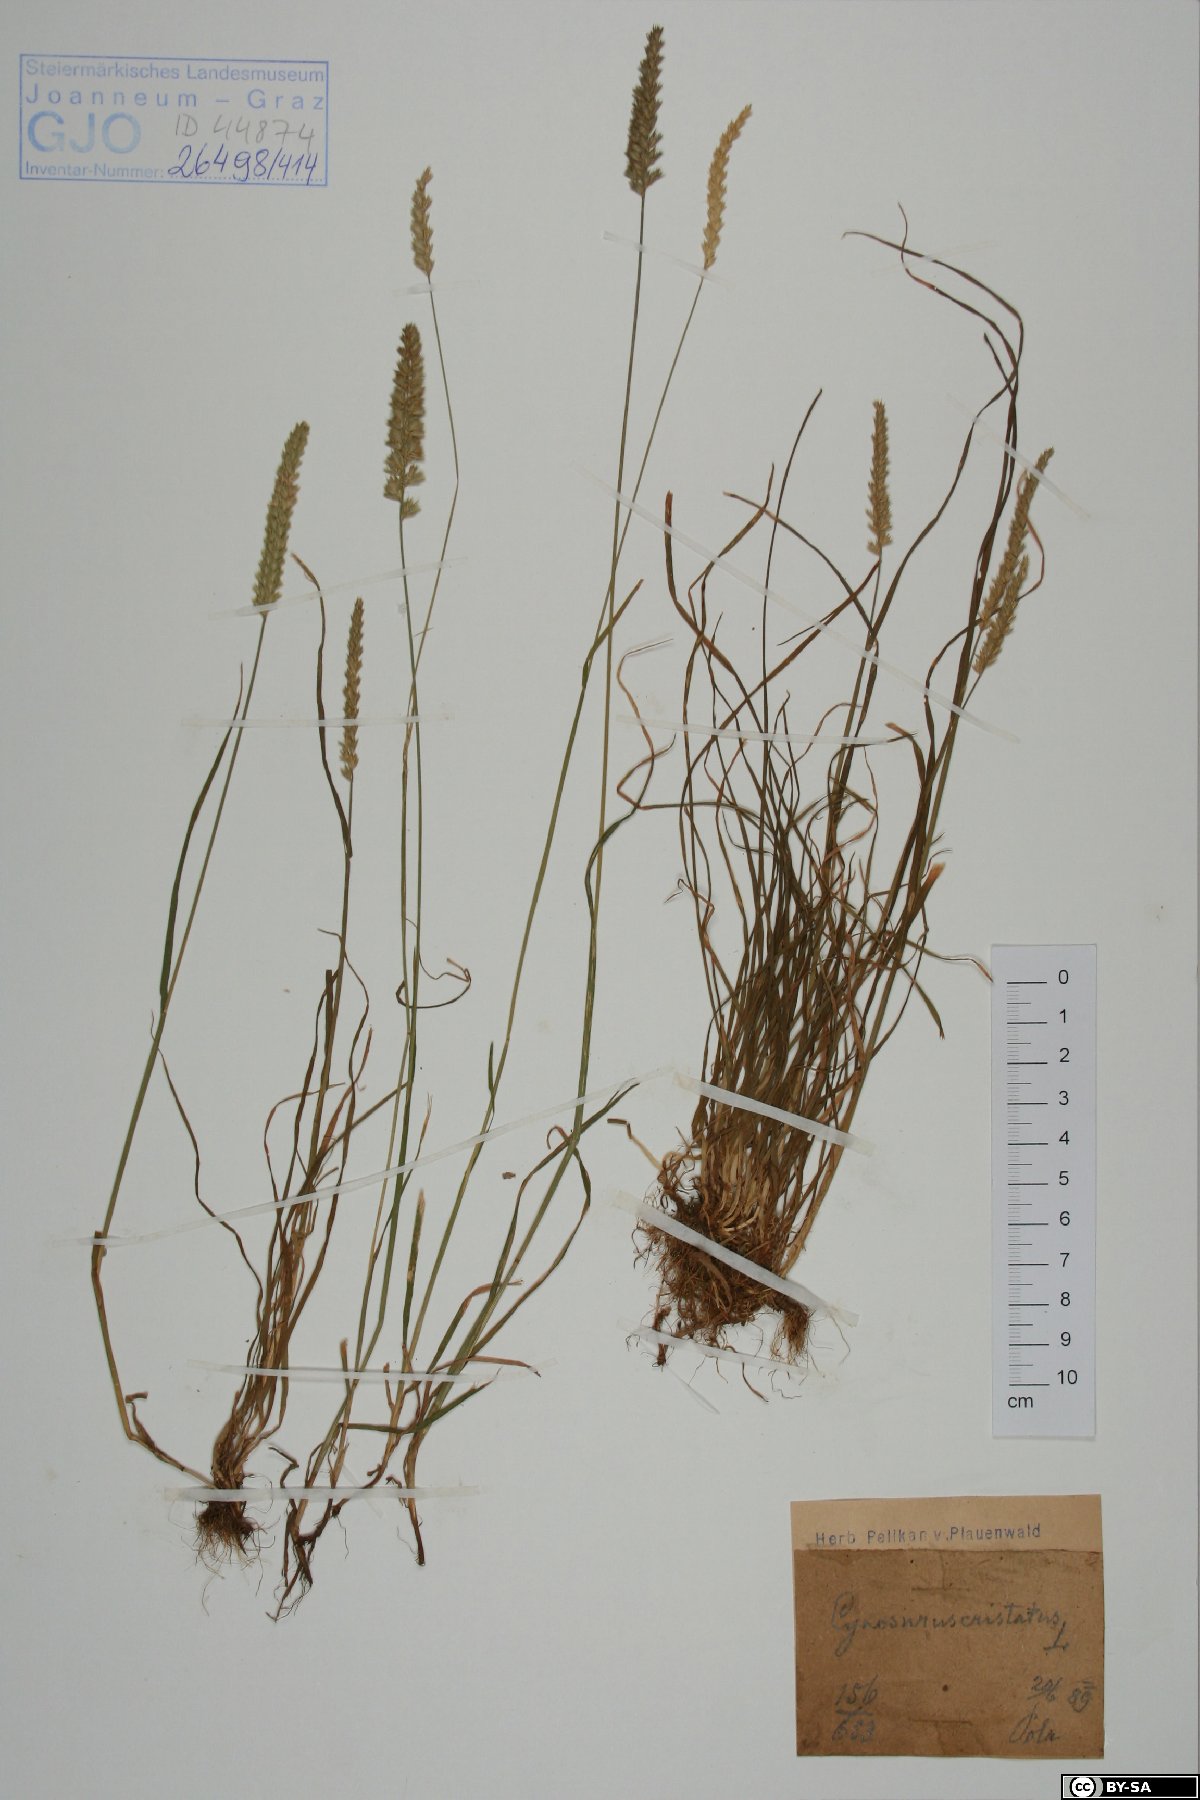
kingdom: Plantae
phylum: Tracheophyta
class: Liliopsida
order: Poales
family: Poaceae
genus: Cynosurus
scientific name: Cynosurus cristatus
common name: Crested dog's-tail
